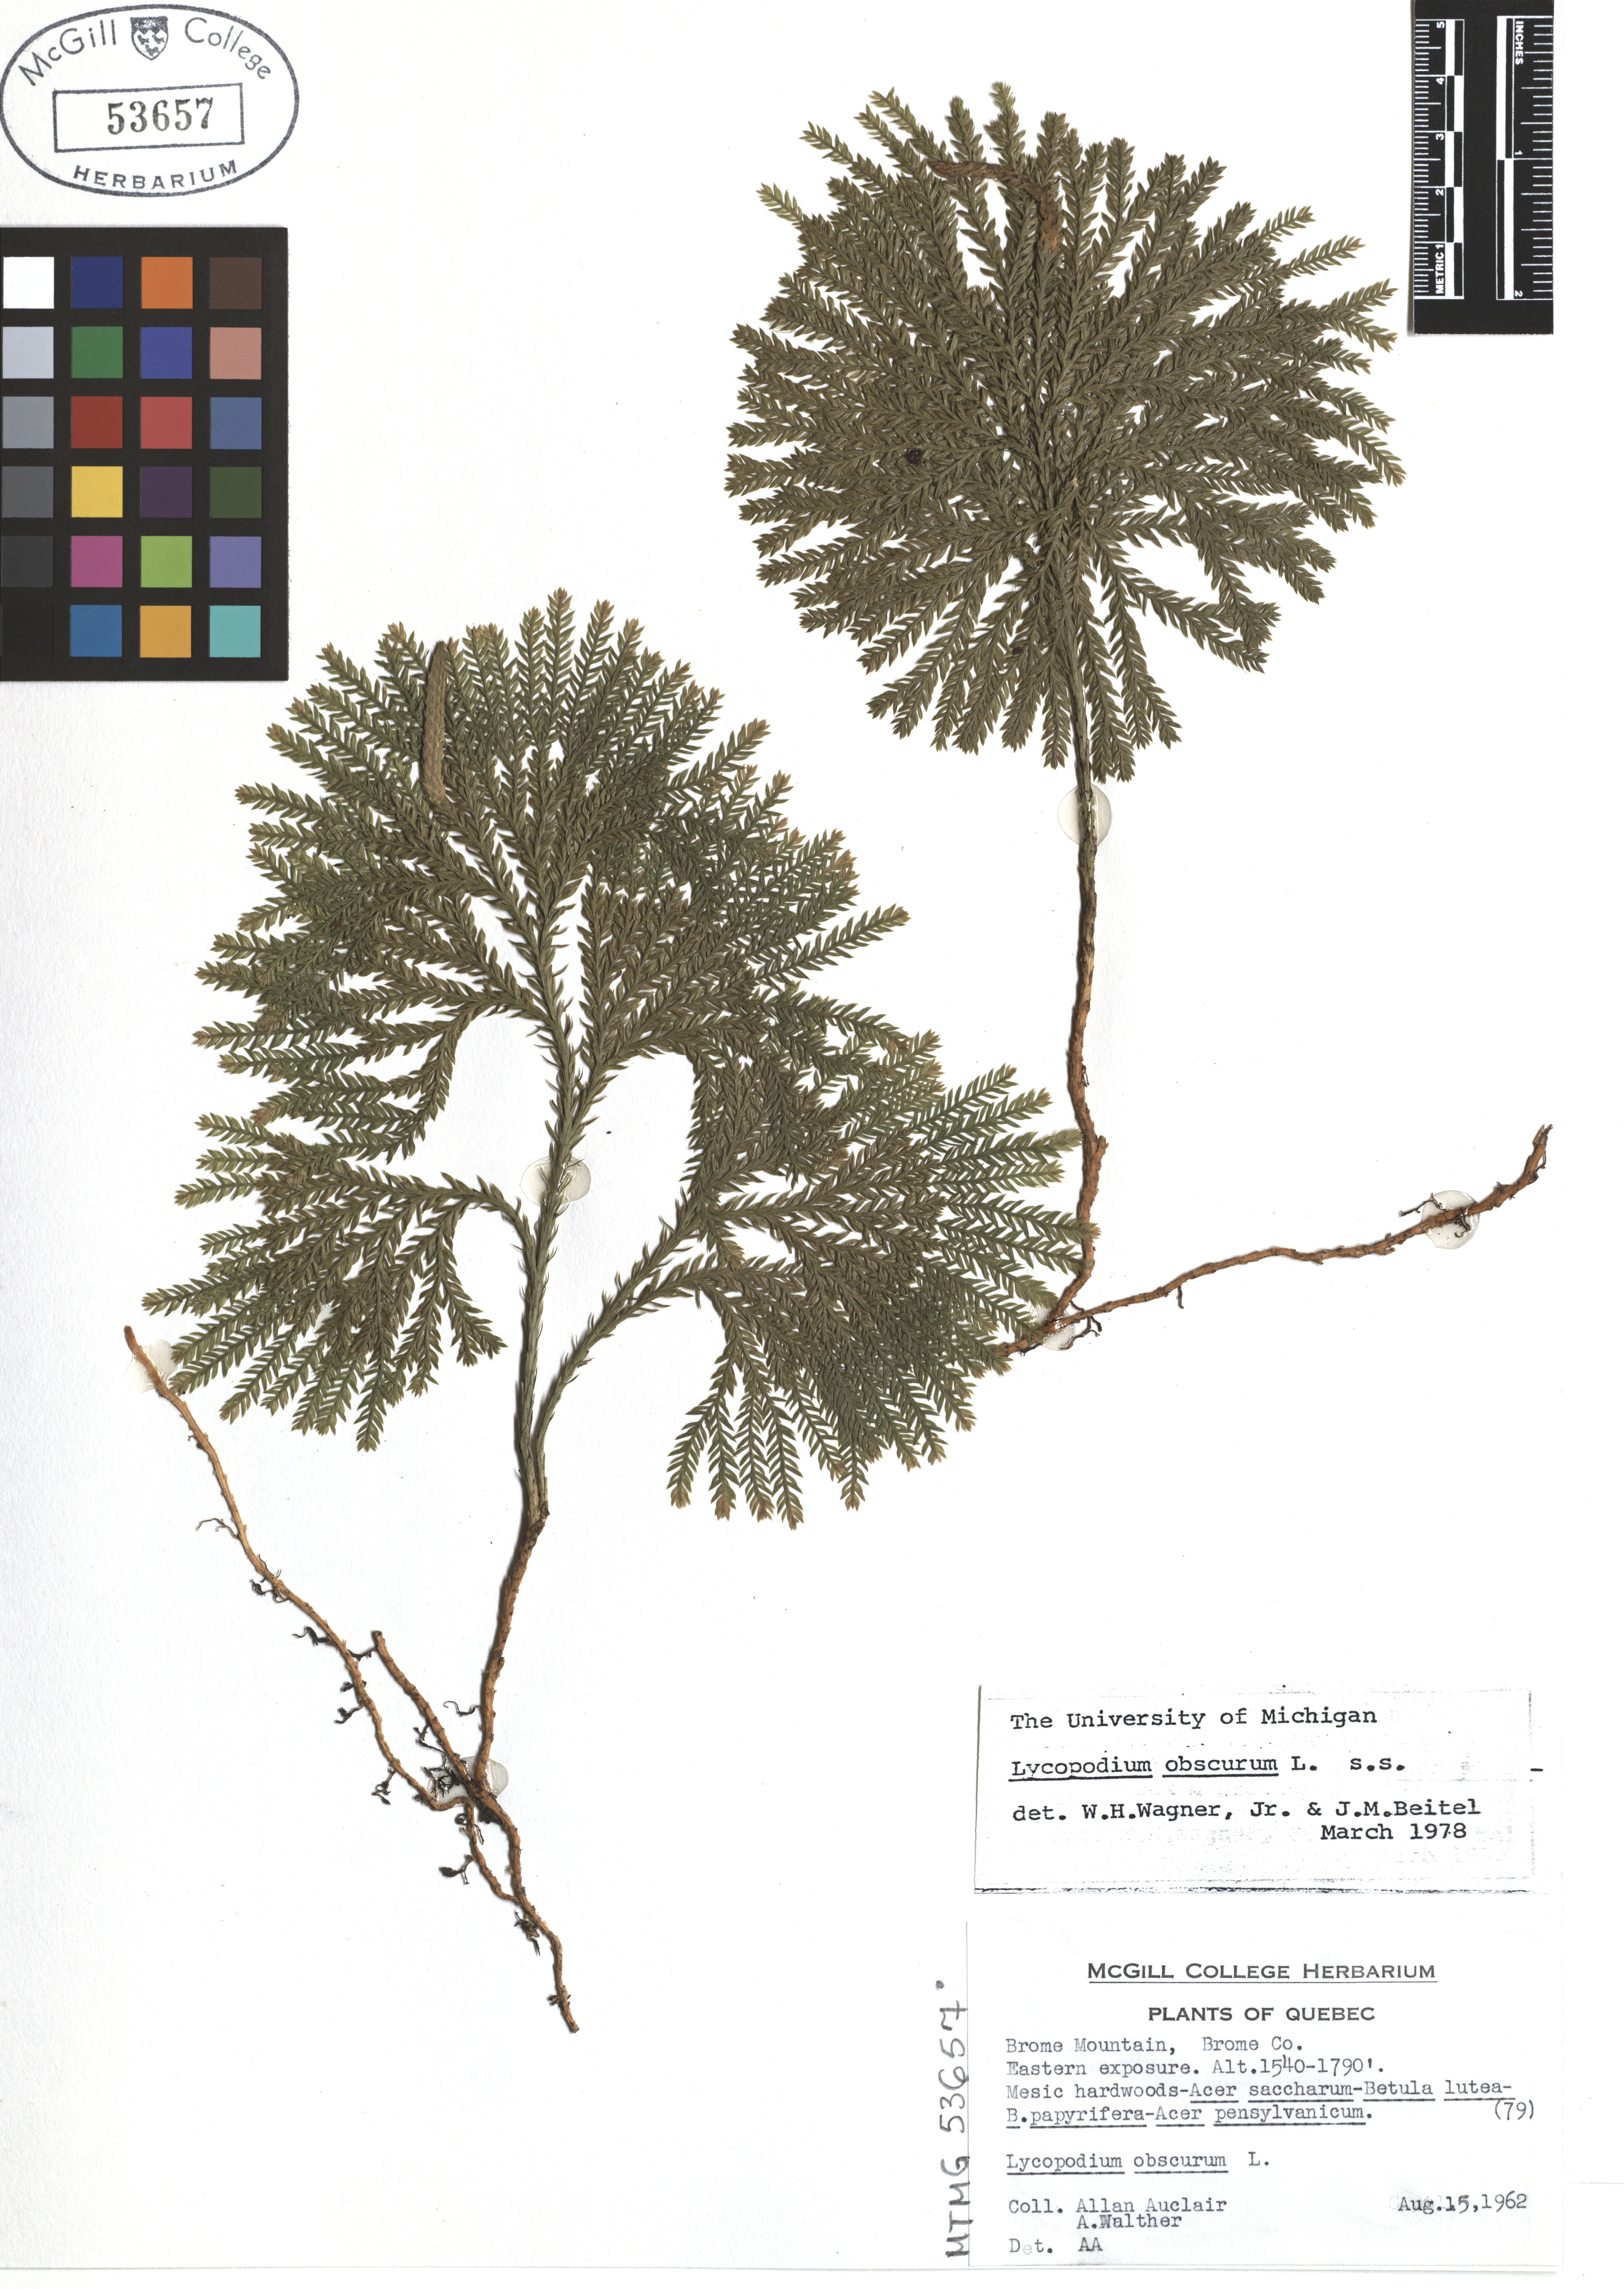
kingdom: Plantae
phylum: Tracheophyta
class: Lycopodiopsida
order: Lycopodiales
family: Lycopodiaceae
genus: Dendrolycopodium
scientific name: Dendrolycopodium obscurum
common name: Common ground-pine
